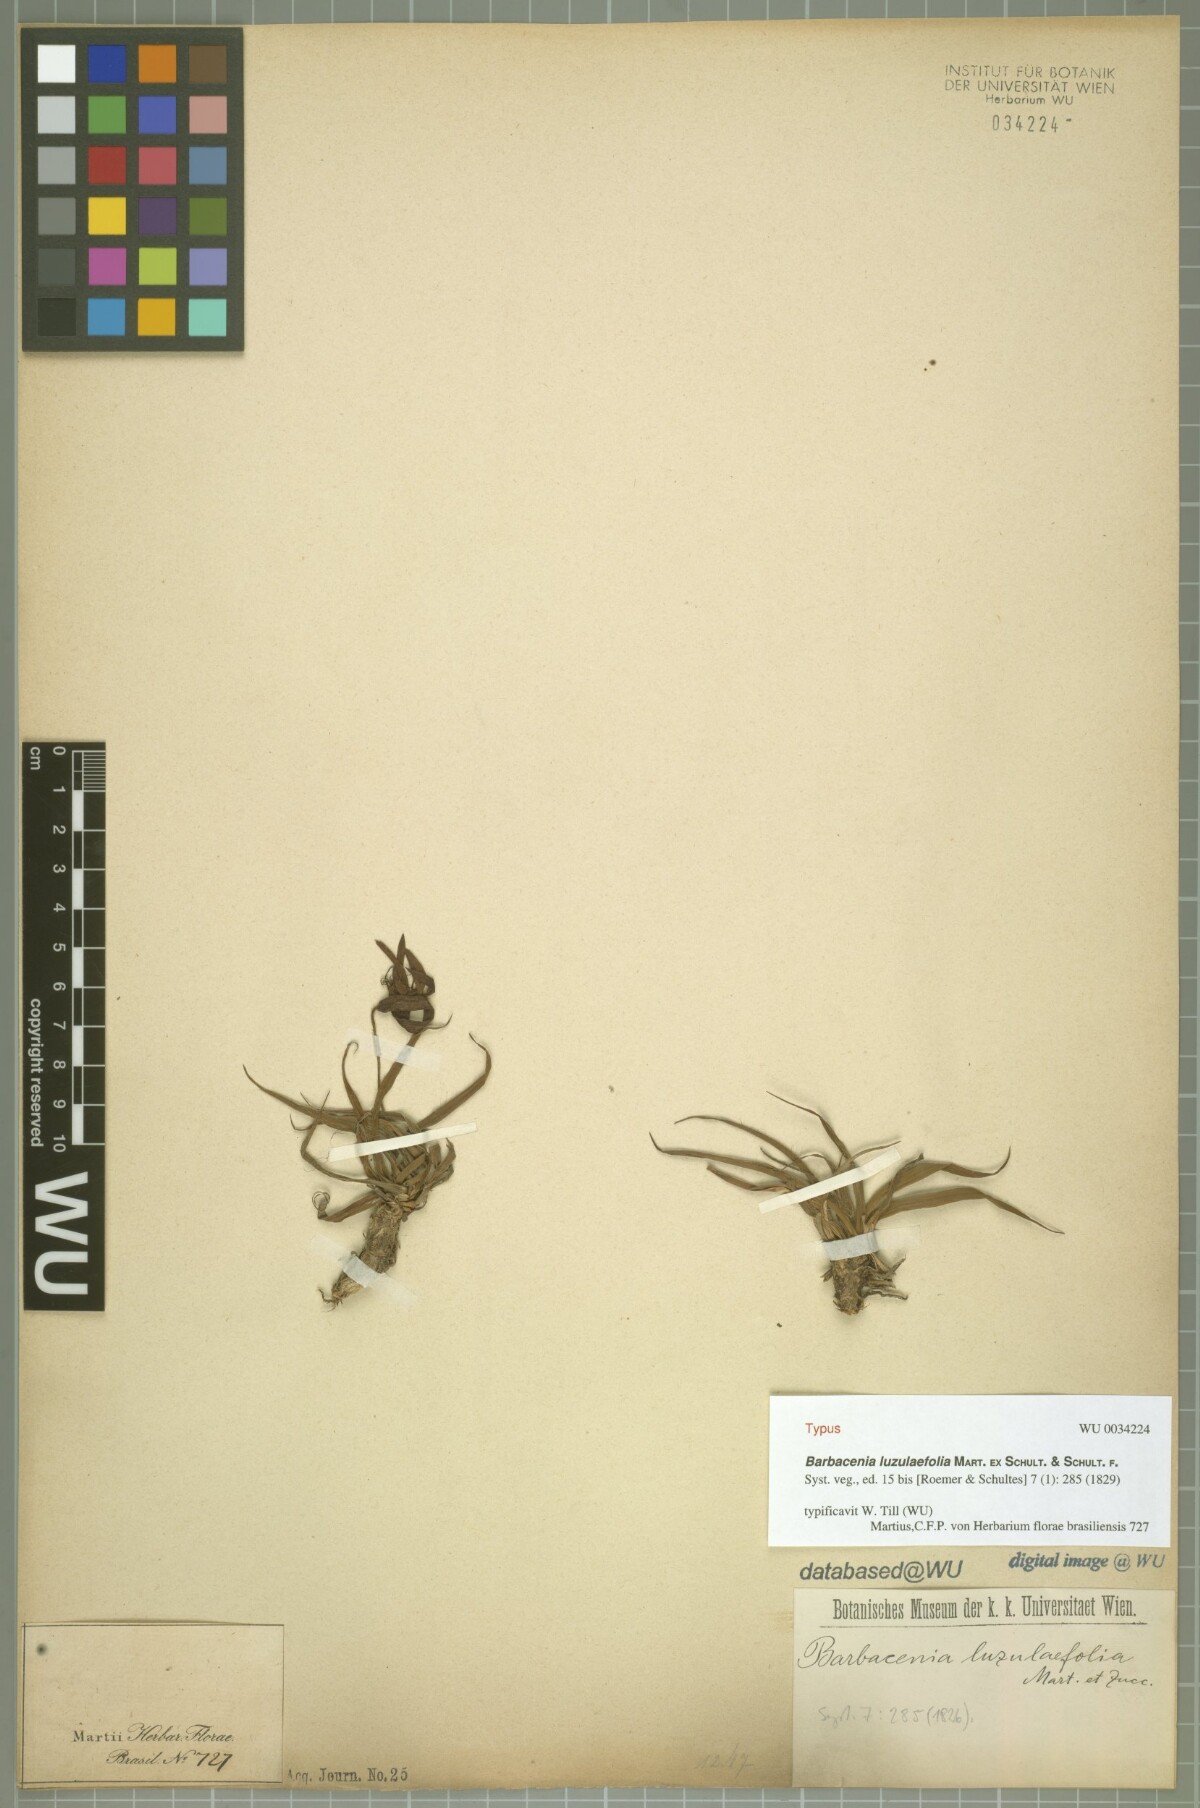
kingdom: Plantae
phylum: Tracheophyta
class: Liliopsida
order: Pandanales
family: Velloziaceae
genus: Barbacenia
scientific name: Barbacenia luzulifolia
